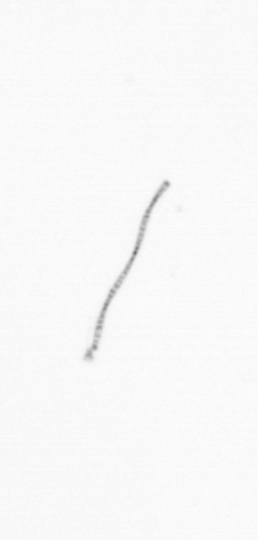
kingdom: Chromista
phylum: Ochrophyta
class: Bacillariophyceae
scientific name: Bacillariophyceae
